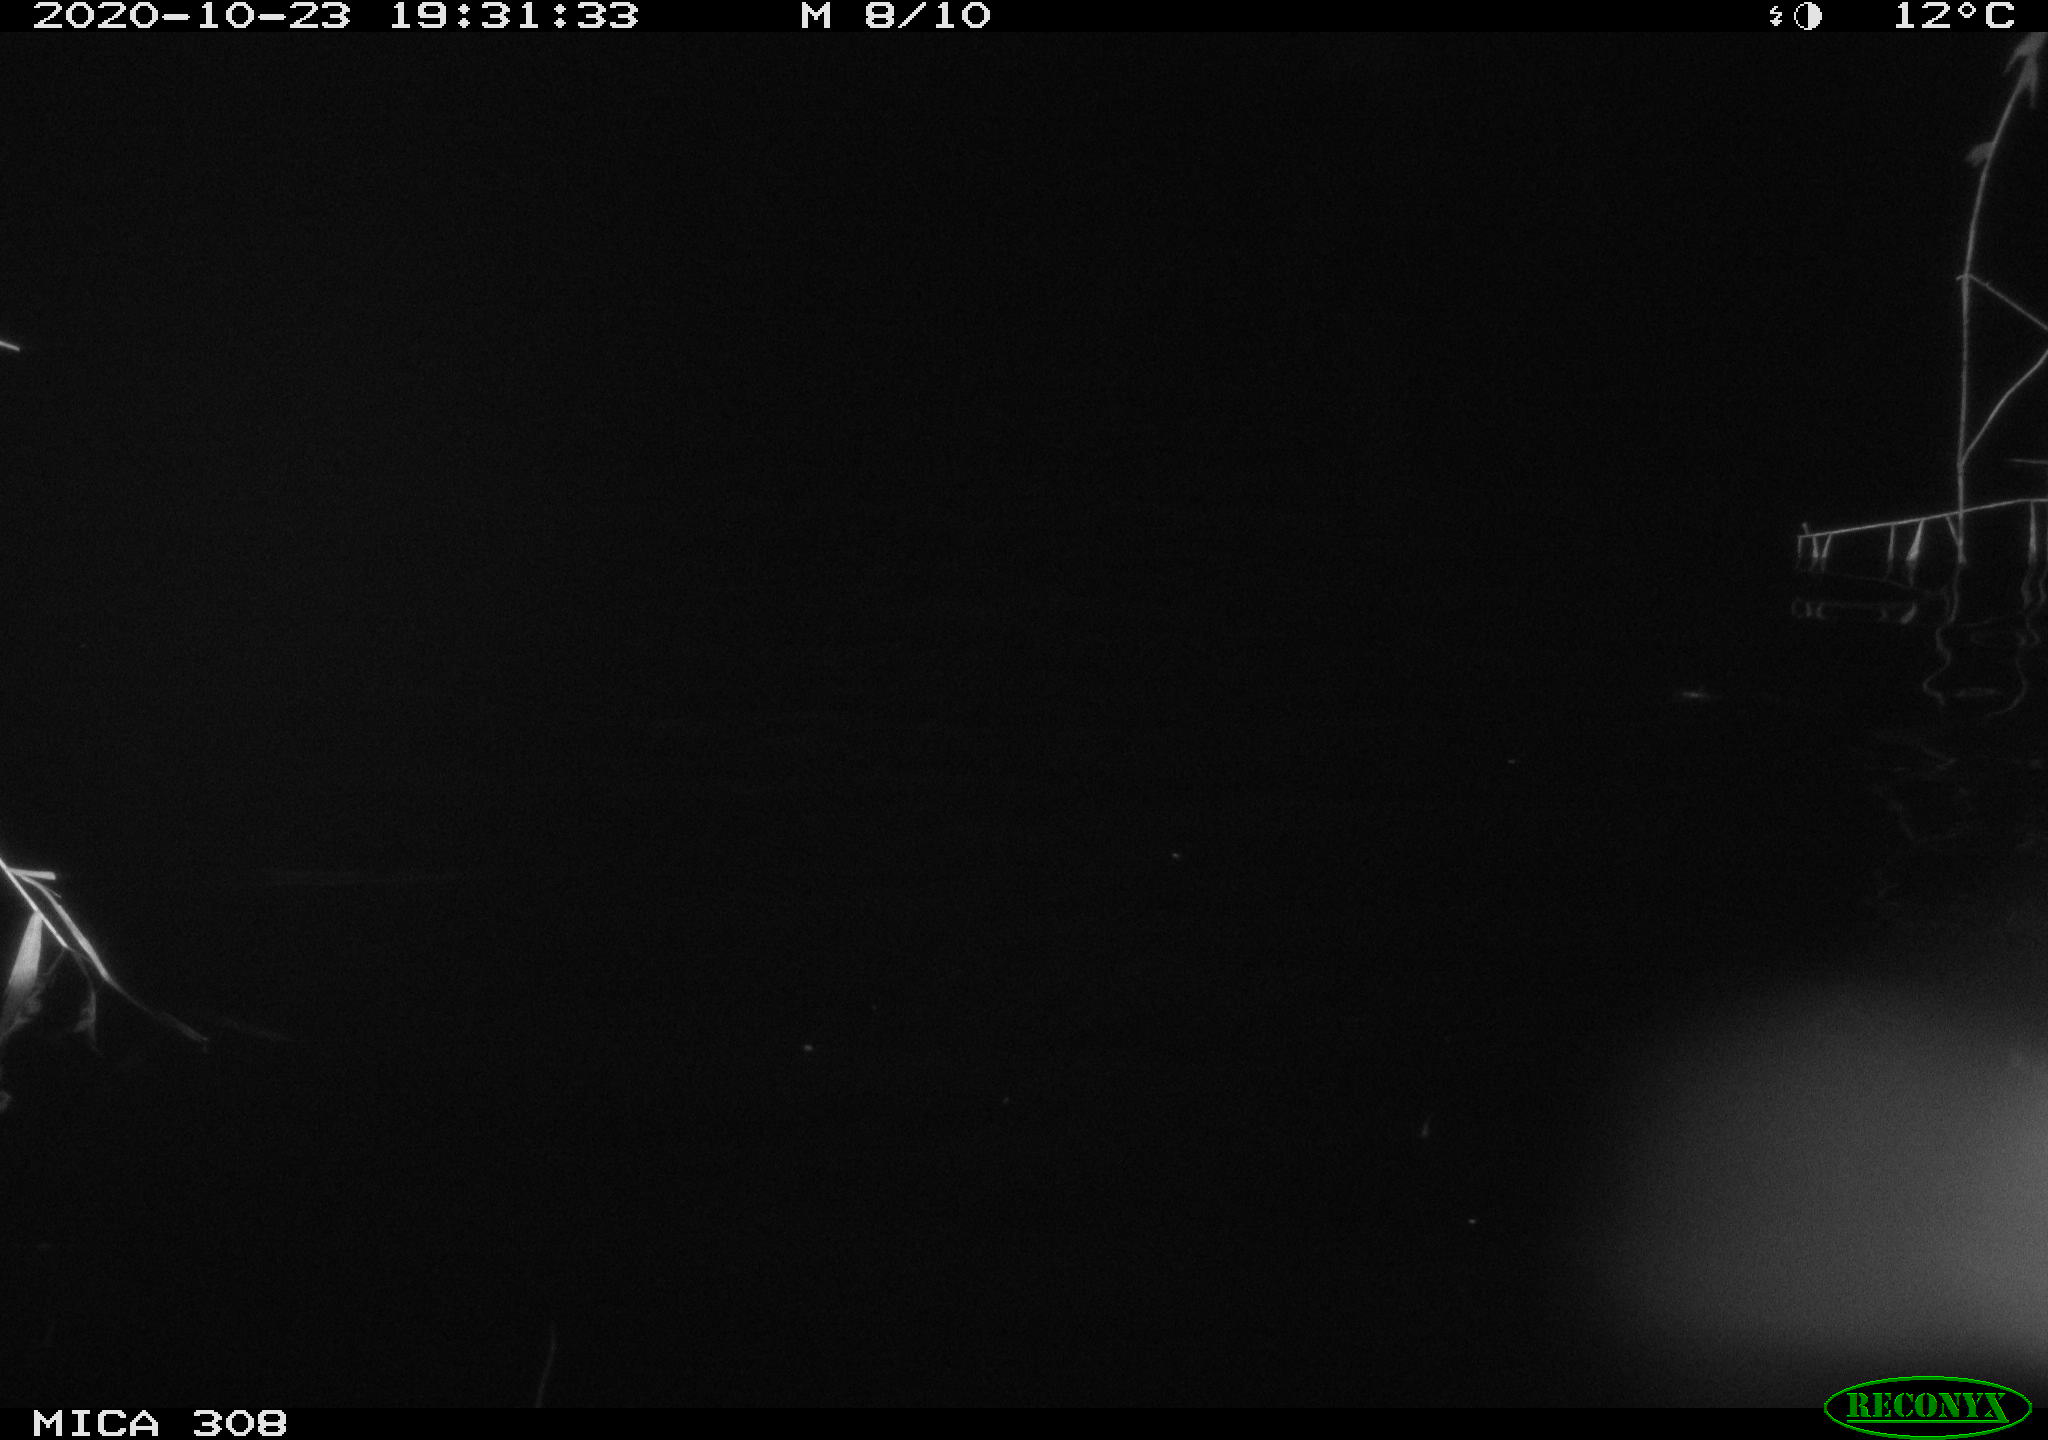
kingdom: Animalia
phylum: Chordata
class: Mammalia
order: Rodentia
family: Muridae
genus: Rattus
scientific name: Rattus norvegicus
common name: Brown rat
